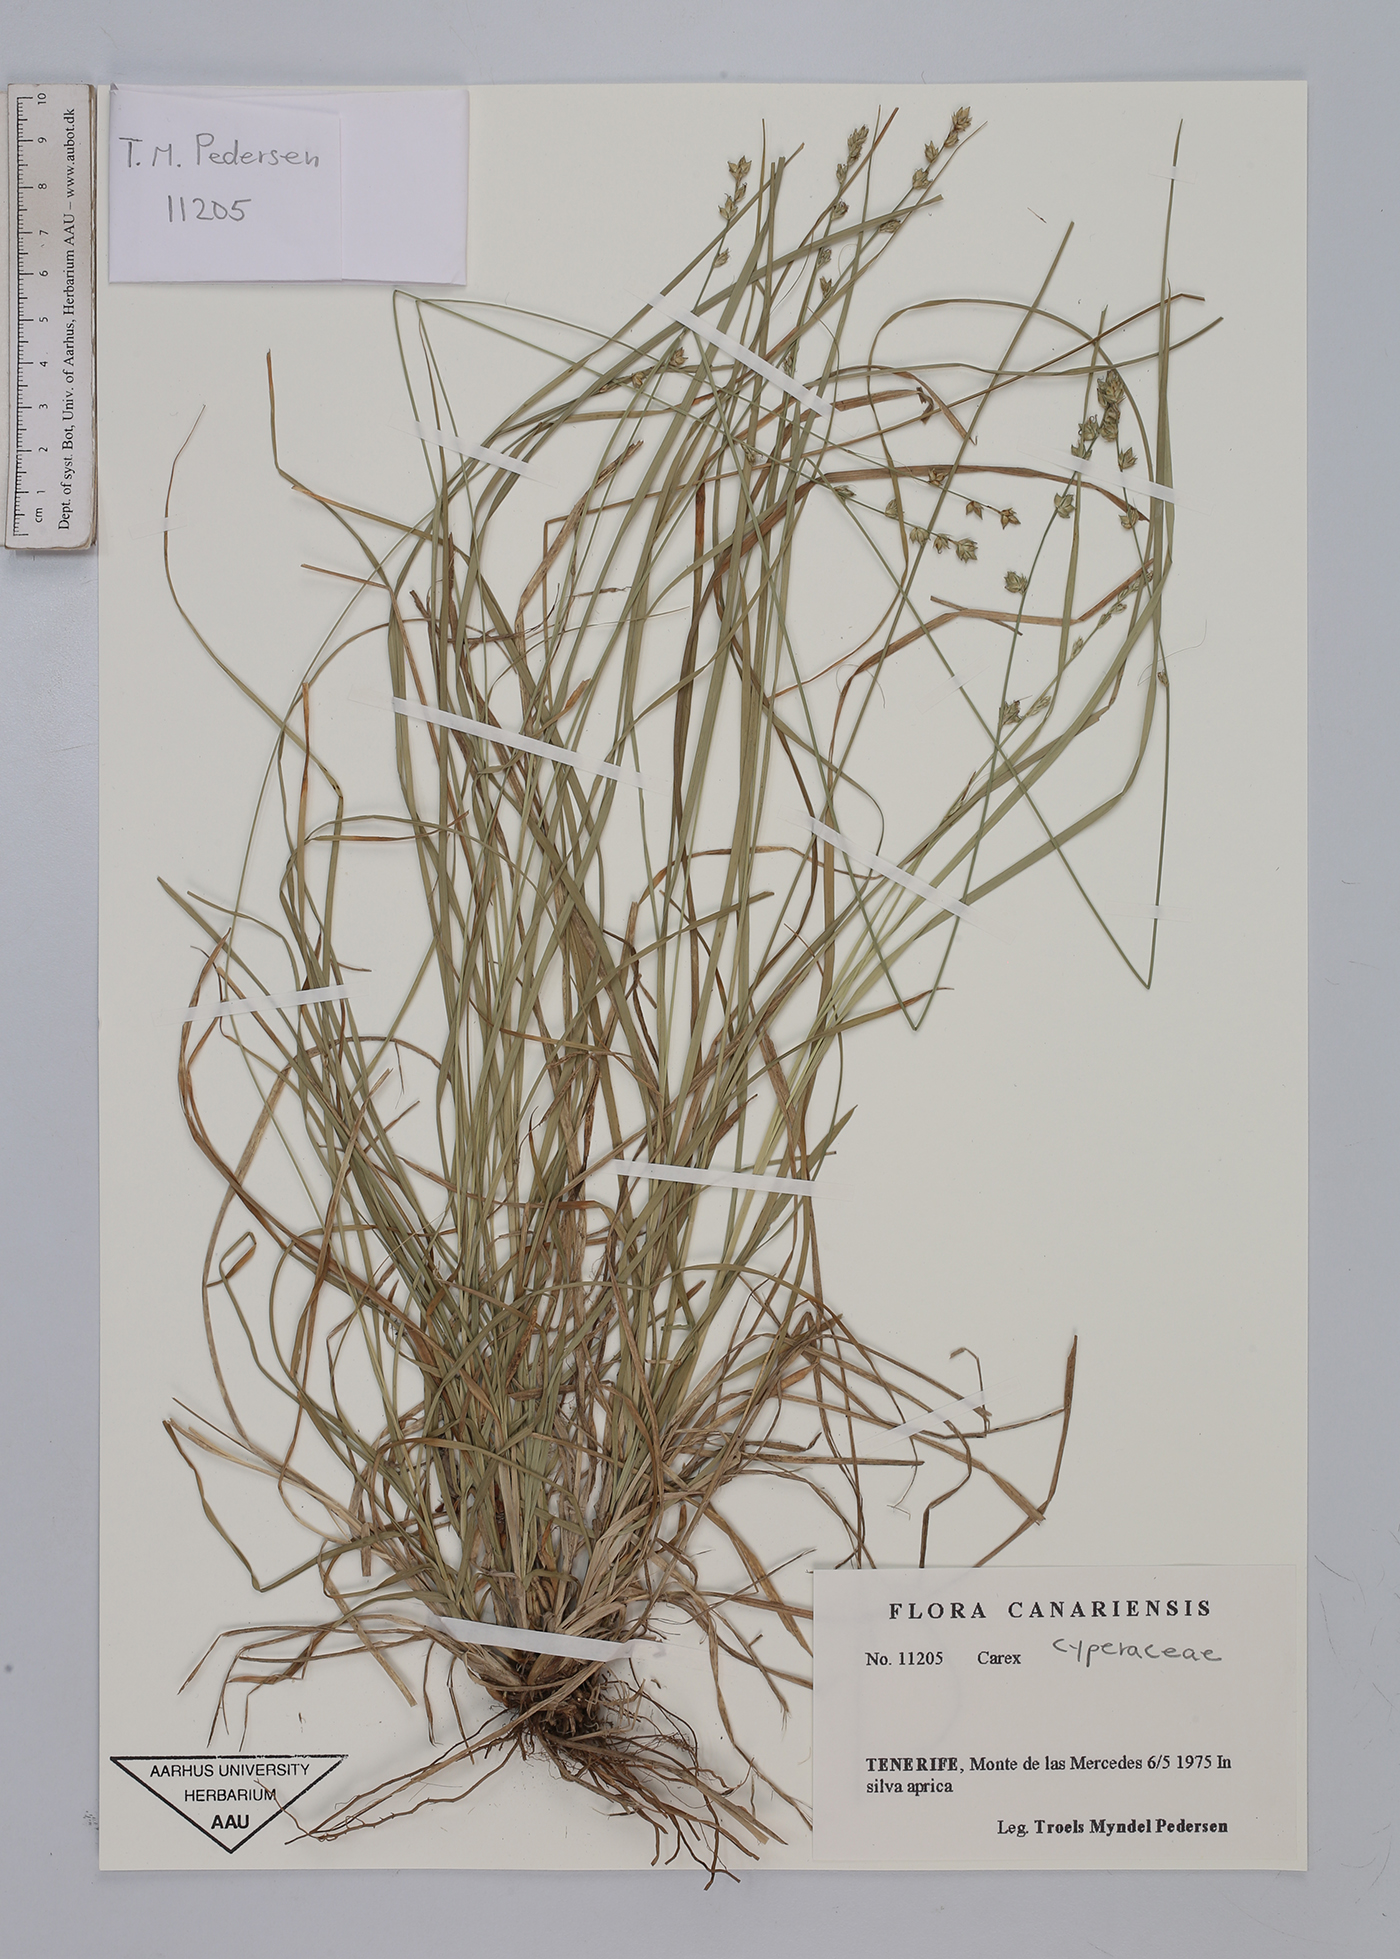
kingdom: Plantae
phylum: Tracheophyta
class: Liliopsida
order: Poales
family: Cyperaceae
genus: Carex
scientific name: Carex
